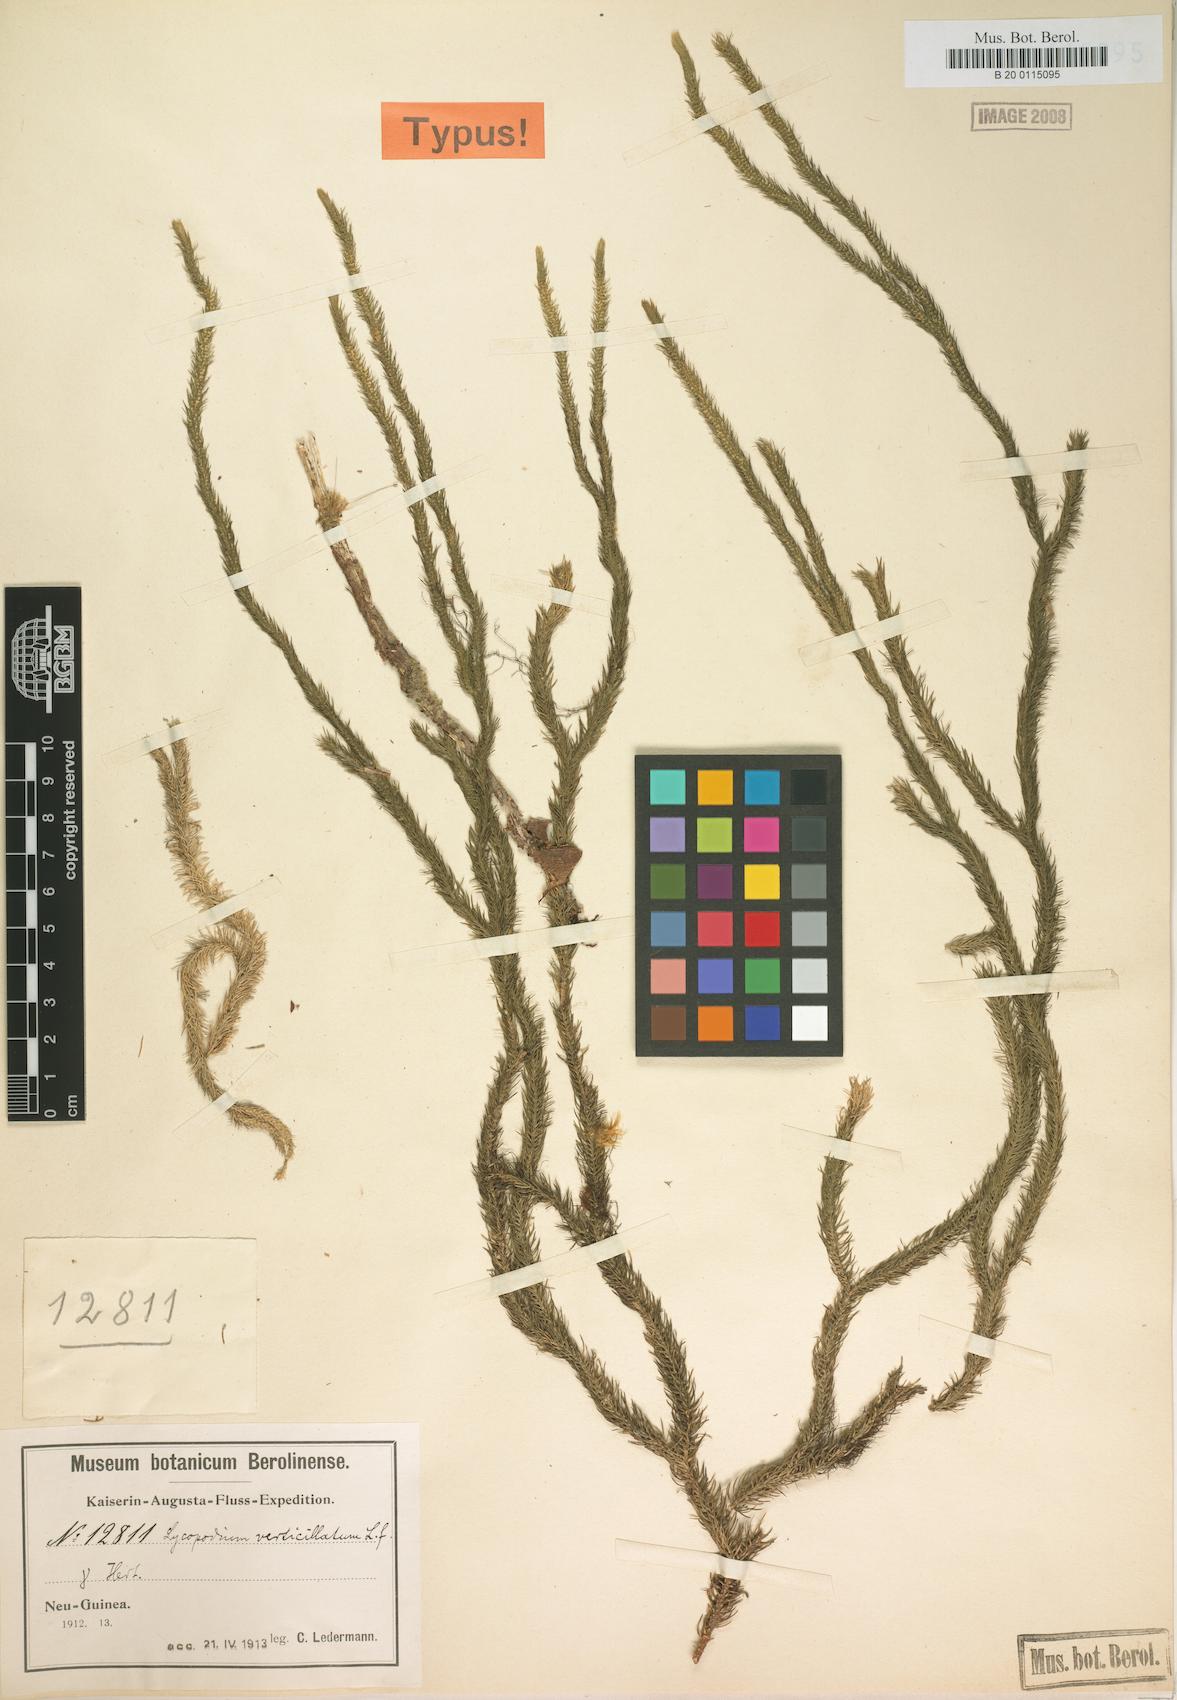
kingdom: Plantae
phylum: Tracheophyta
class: Lycopodiopsida
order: Lycopodiales
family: Lycopodiaceae
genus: Phlegmariurus
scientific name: Phlegmariurus verticillatus
